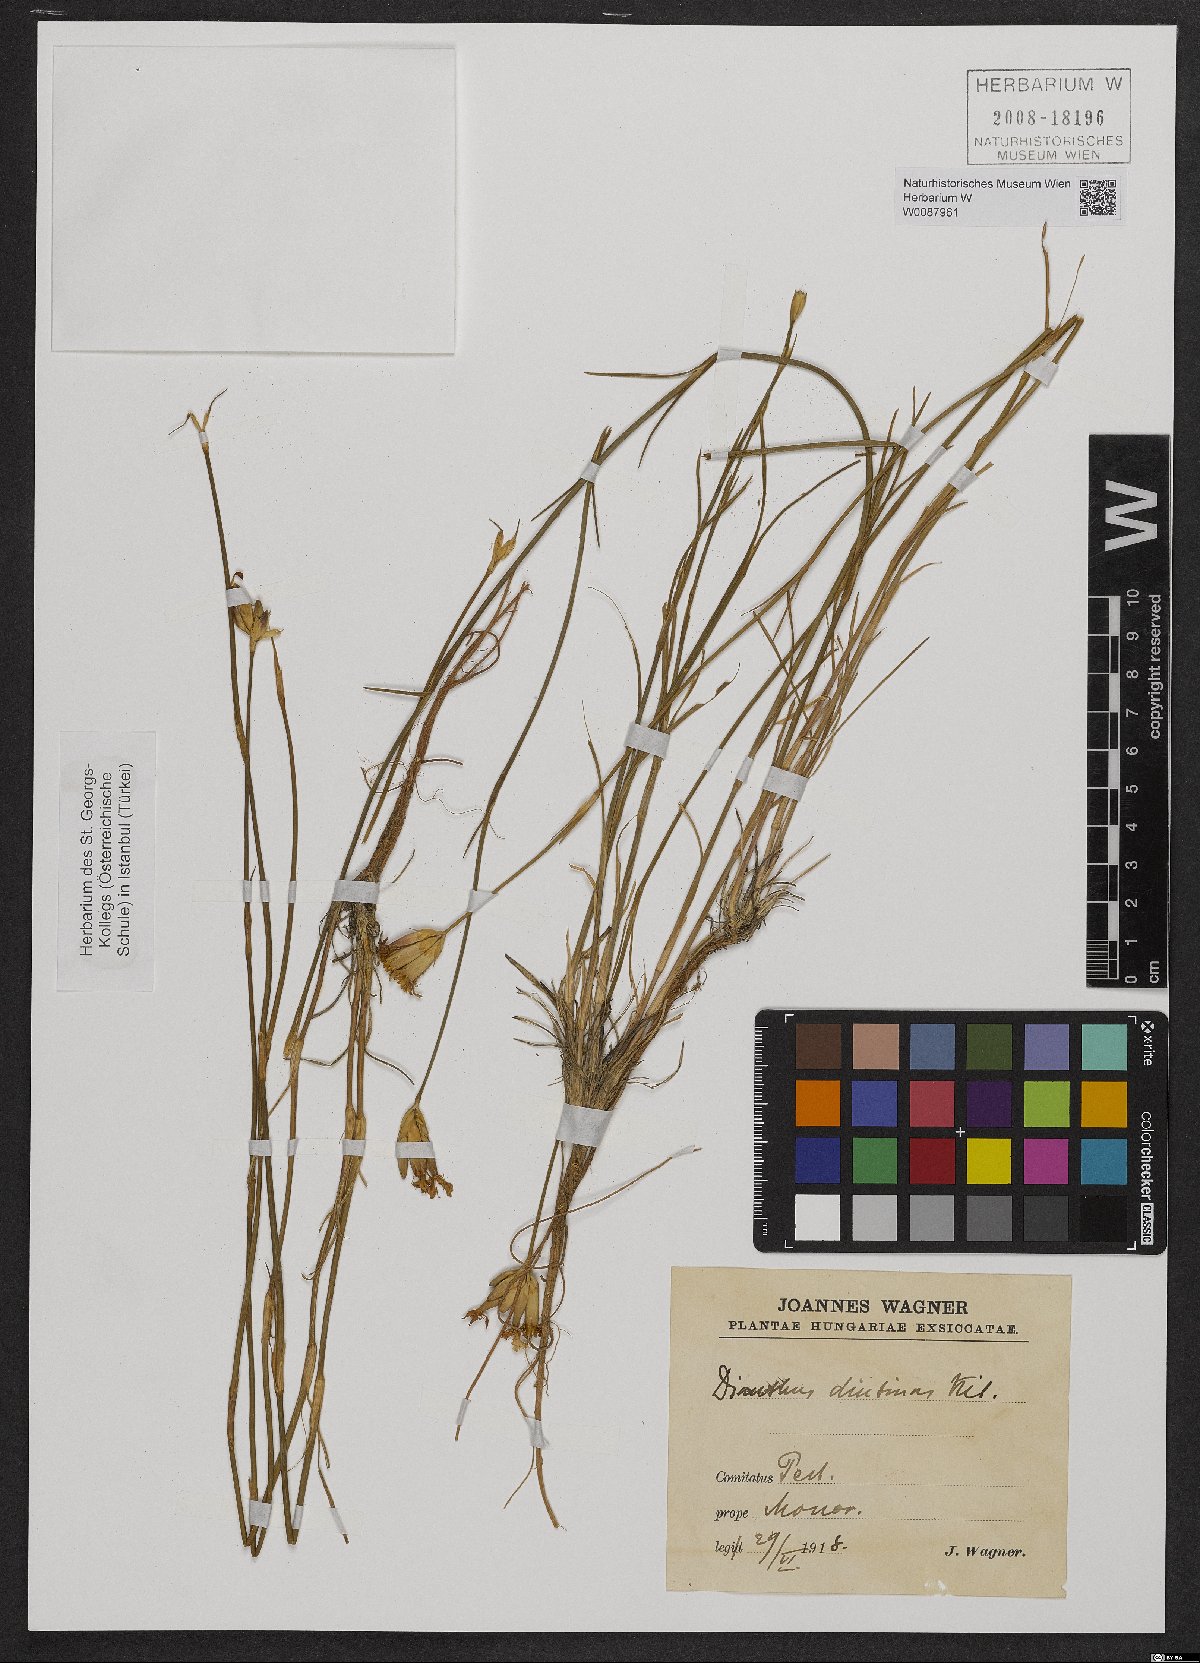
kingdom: Plantae
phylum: Tracheophyta
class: Magnoliopsida
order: Caryophyllales
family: Caryophyllaceae
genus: Dianthus
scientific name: Dianthus polymorphus
